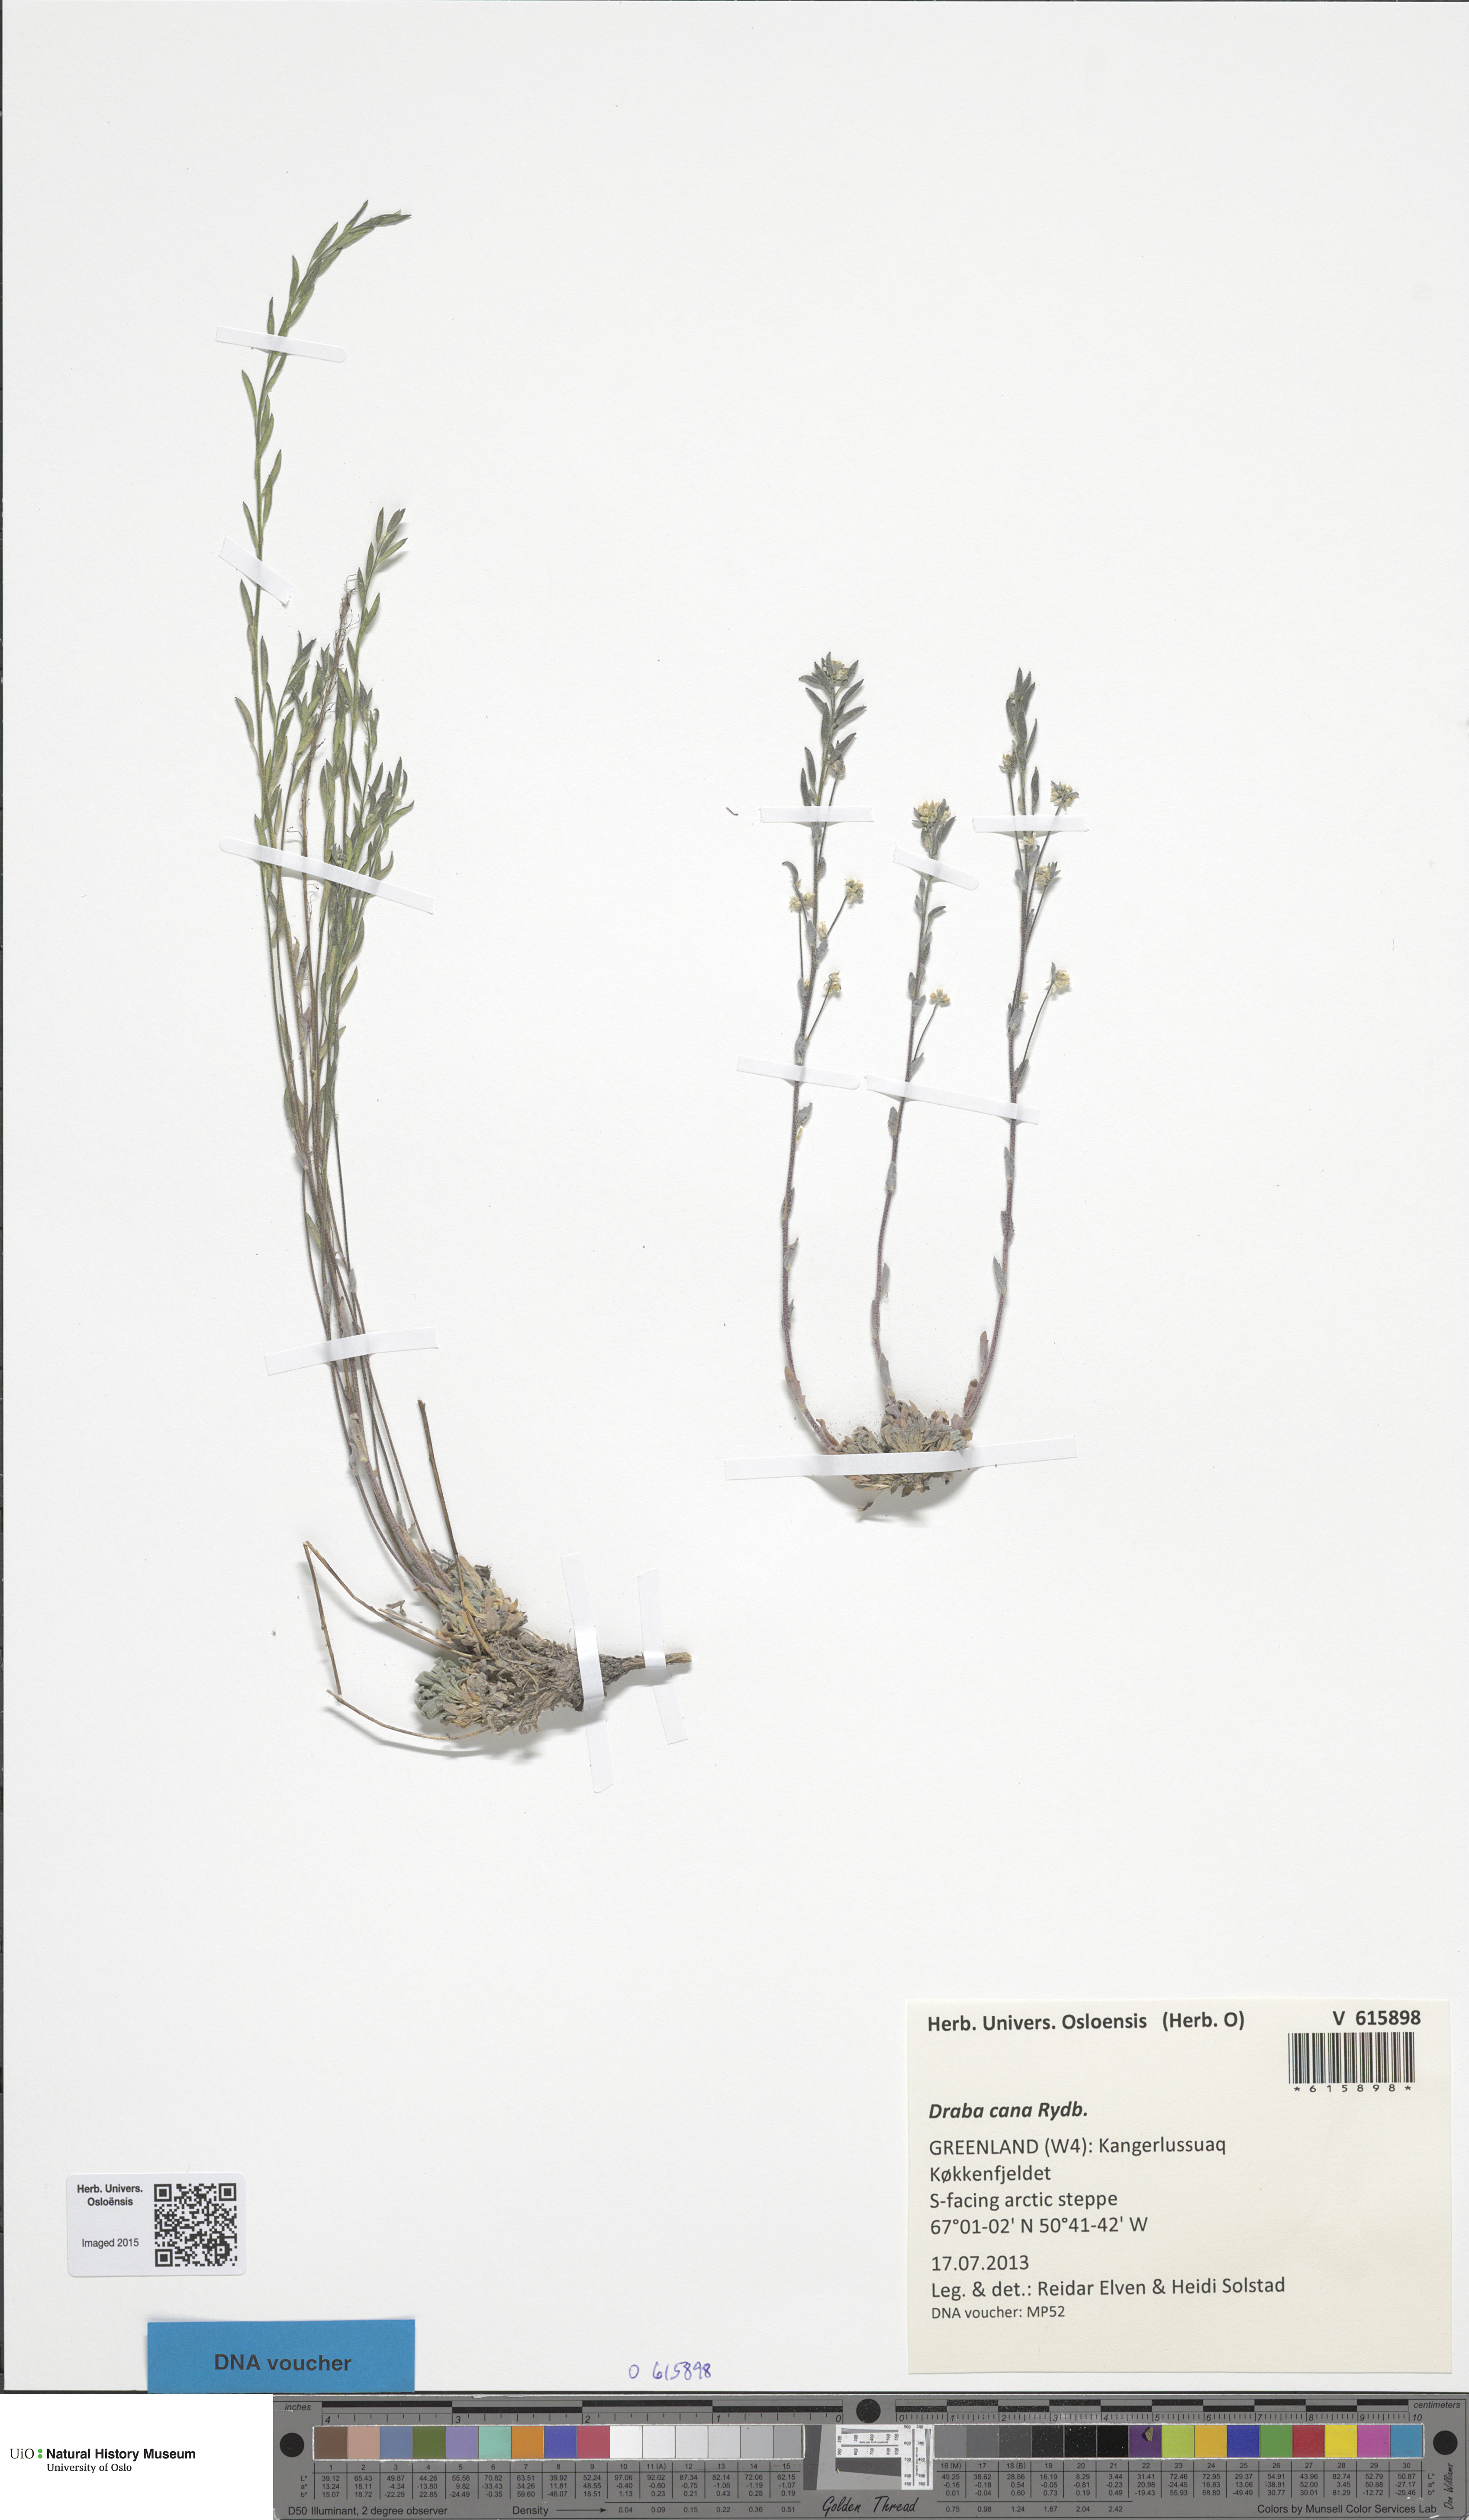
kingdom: Plantae
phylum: Tracheophyta
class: Magnoliopsida
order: Brassicales
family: Brassicaceae
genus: Draba
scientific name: Draba cana
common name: Hoary draba
